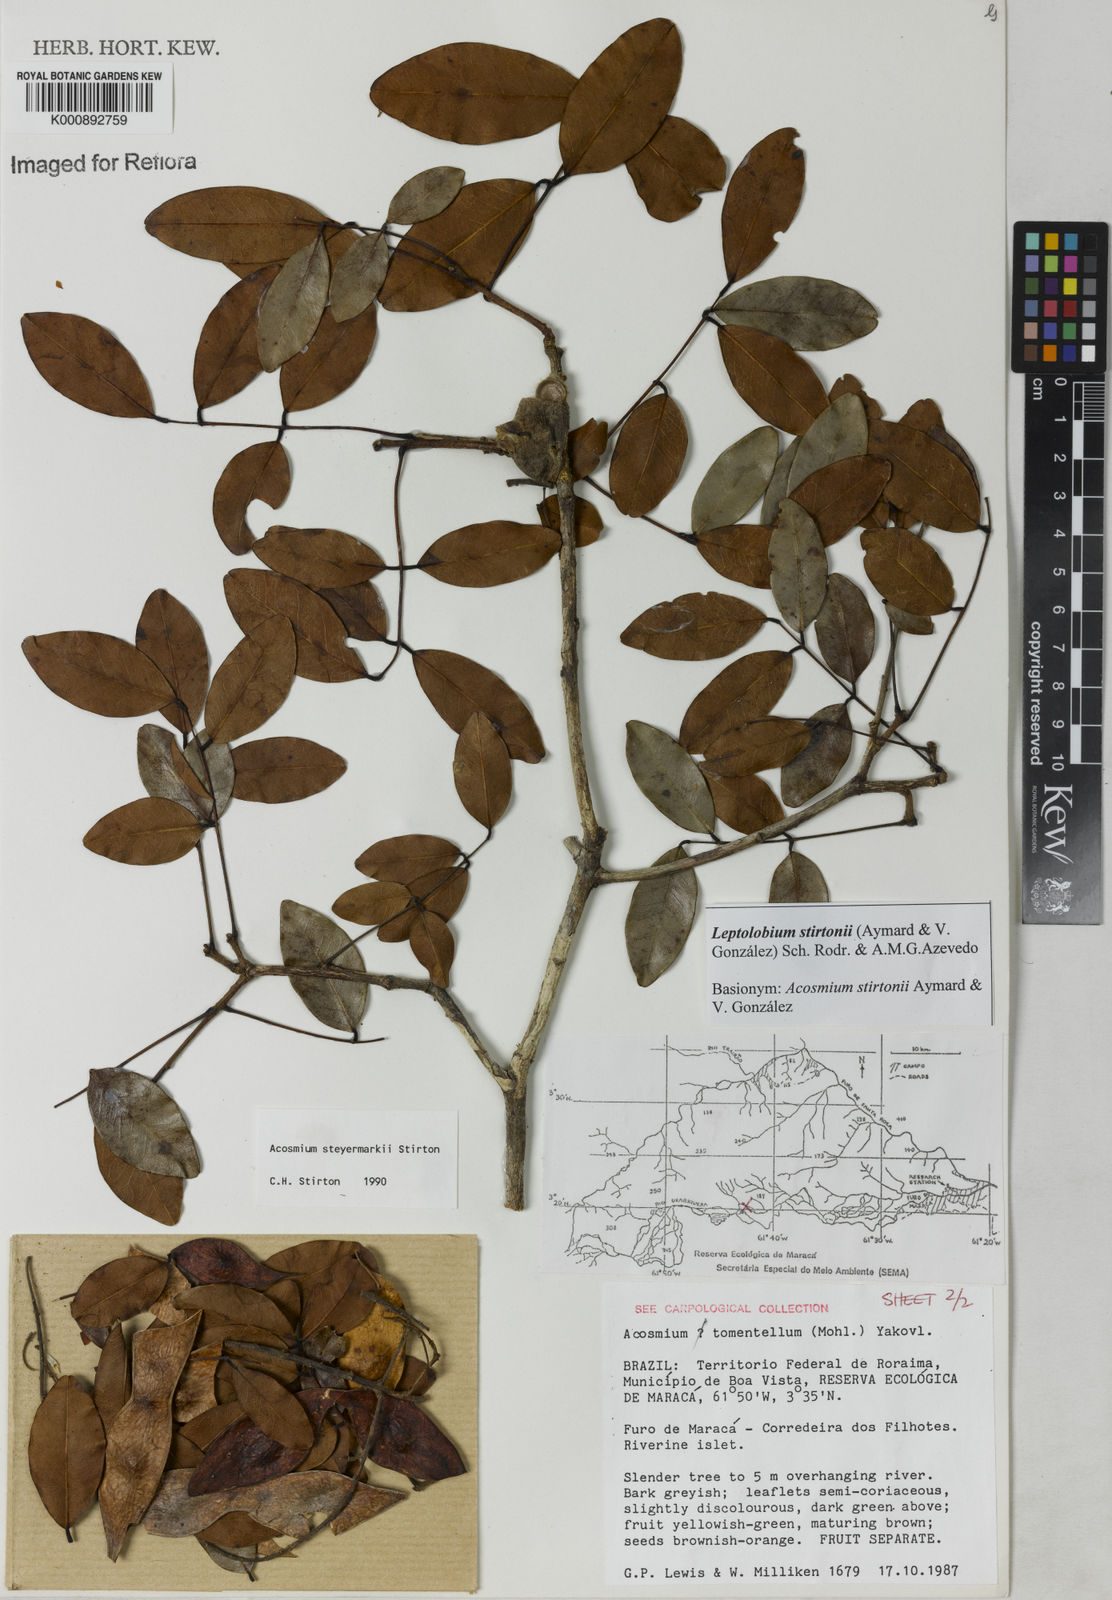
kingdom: Plantae
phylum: Tracheophyta
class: Magnoliopsida
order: Fabales
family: Fabaceae
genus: Leptolobium
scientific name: Leptolobium
